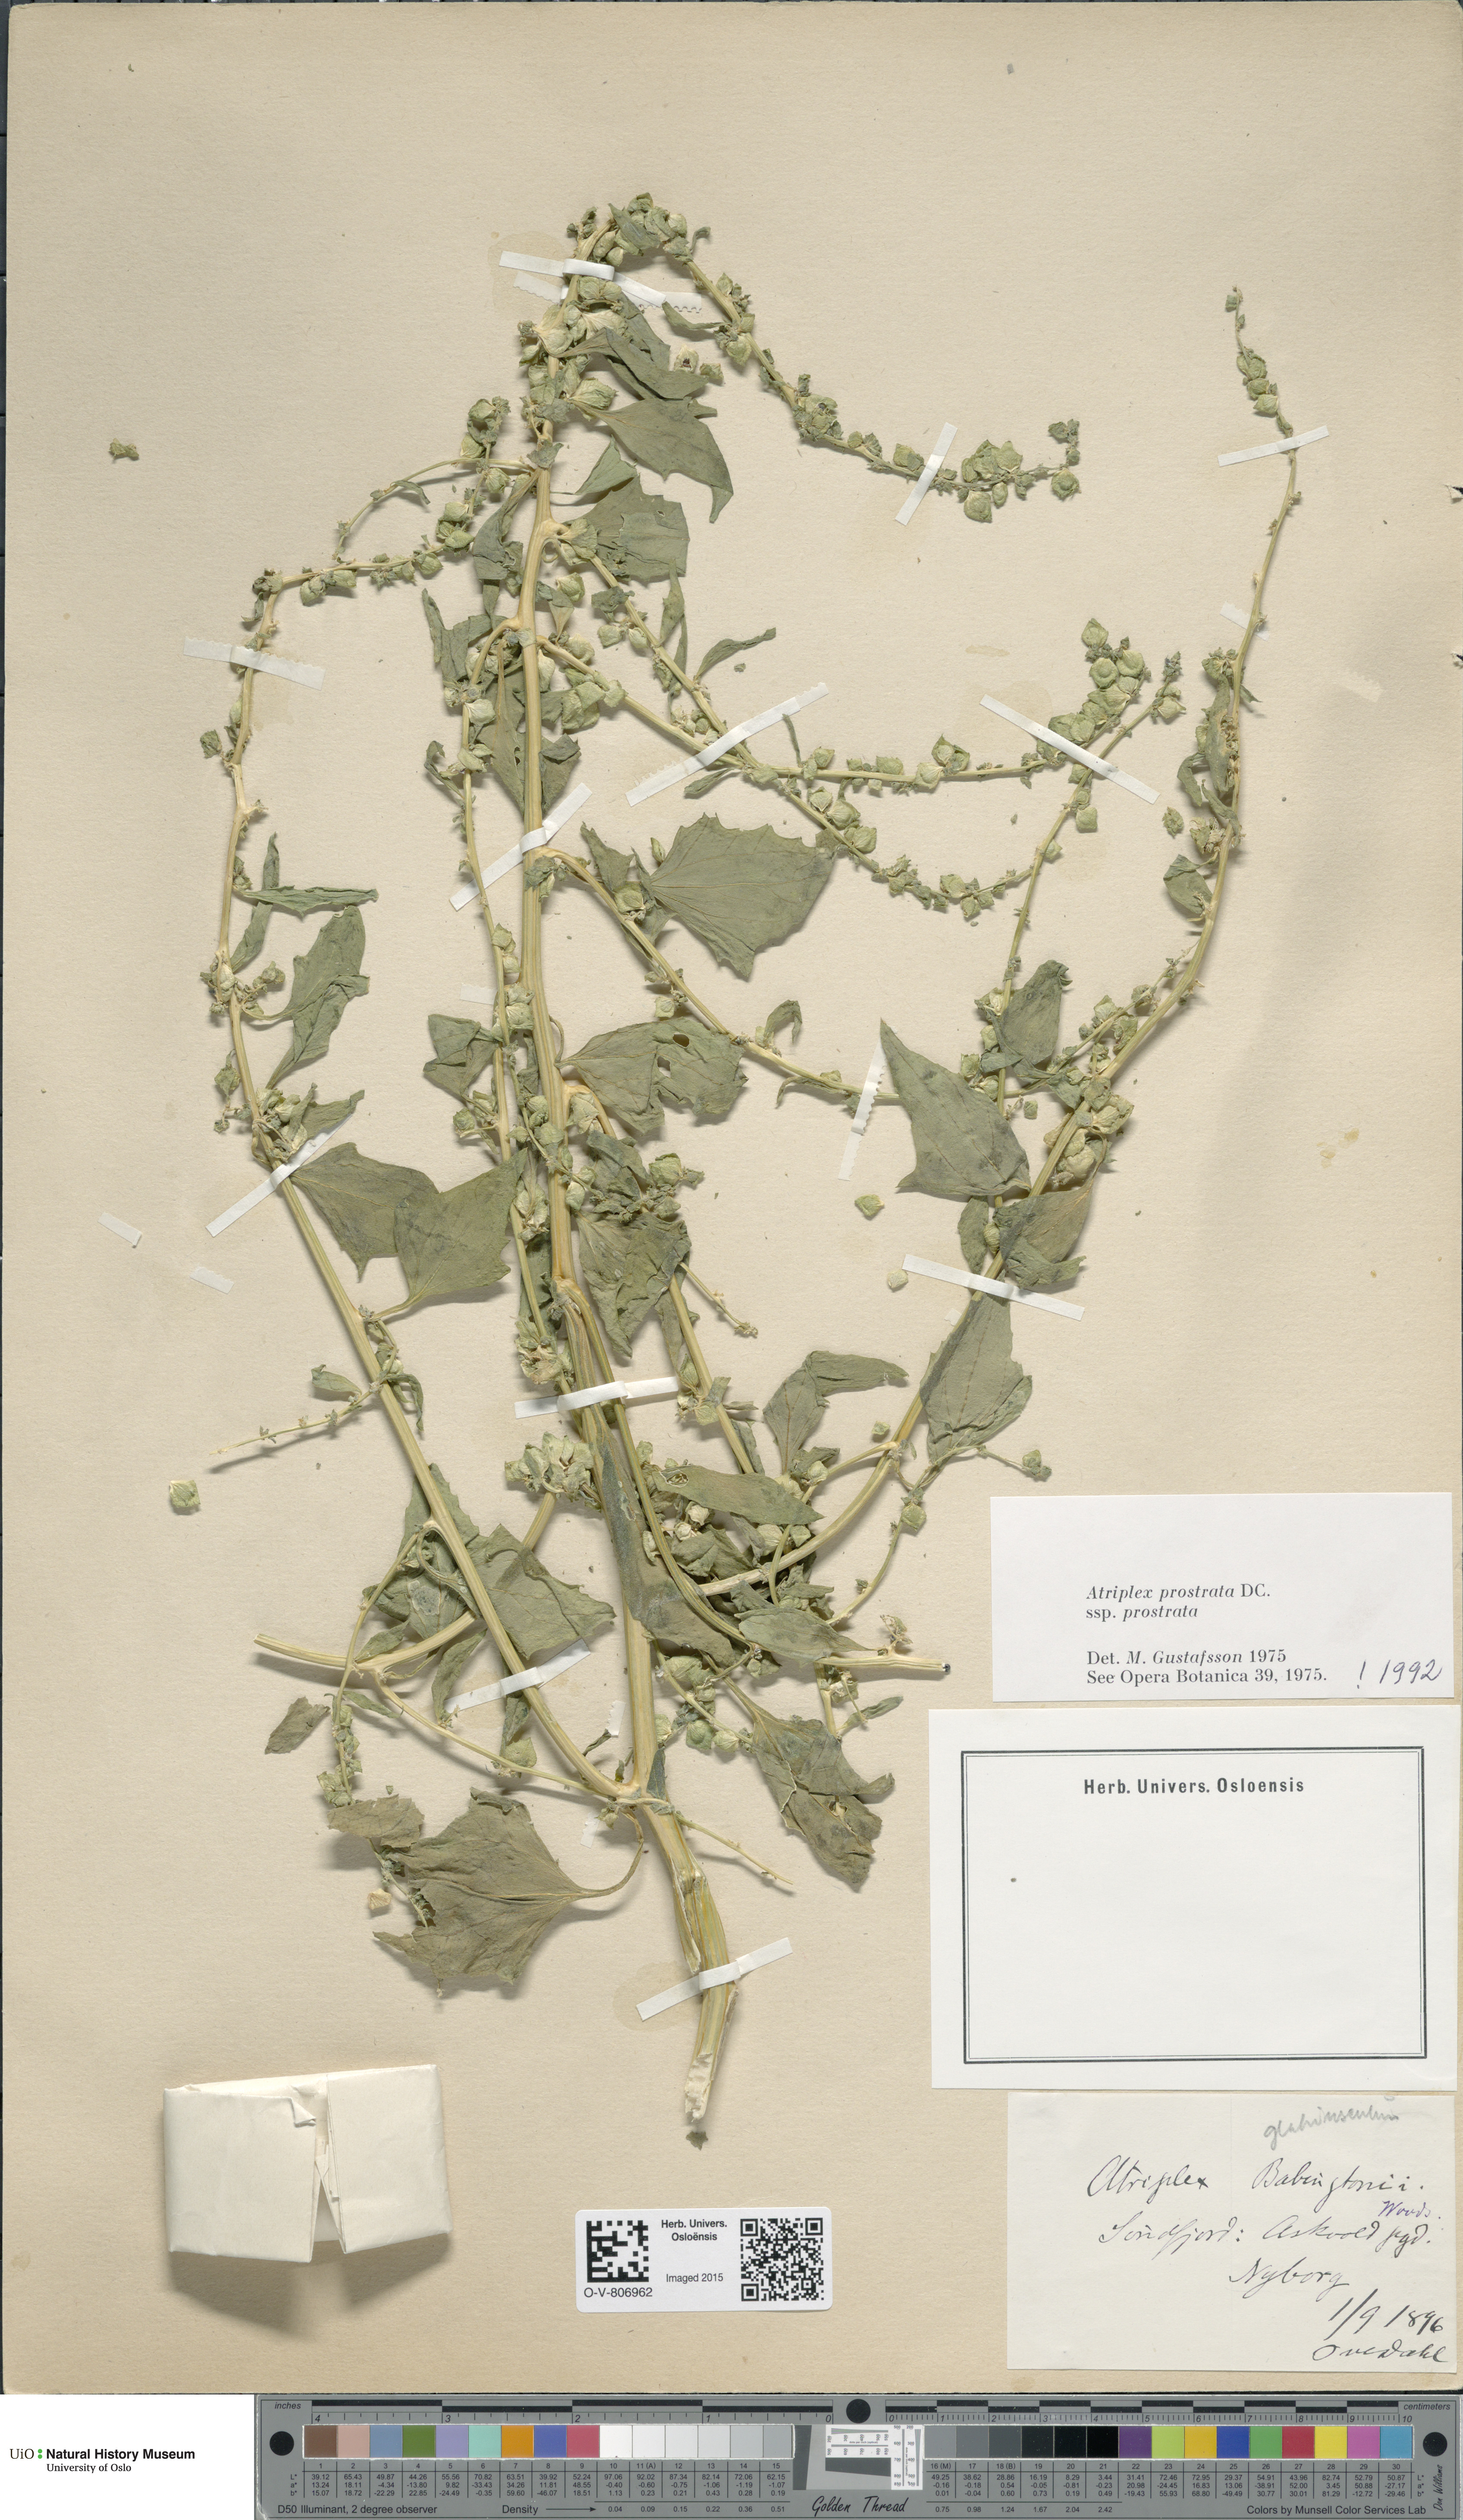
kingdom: Plantae
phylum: Tracheophyta
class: Magnoliopsida
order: Caryophyllales
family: Amaranthaceae
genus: Atriplex
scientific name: Atriplex prostrata
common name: Spear-leaved orache
